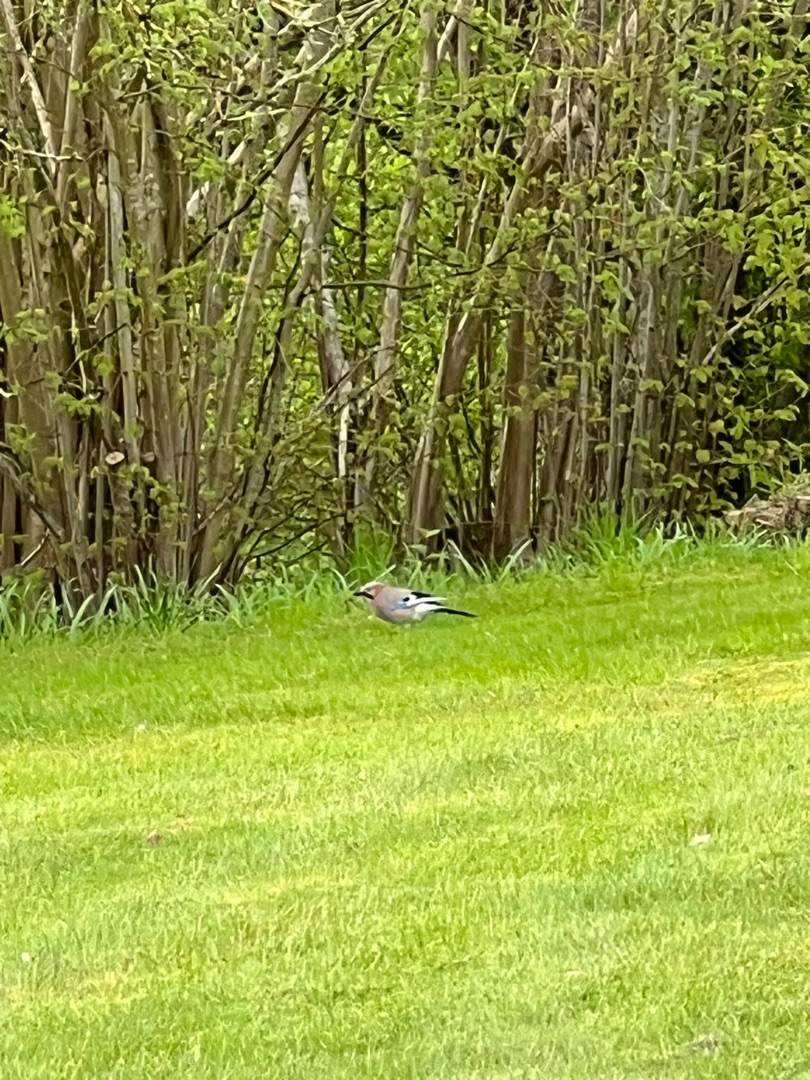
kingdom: Animalia
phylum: Chordata
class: Aves
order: Passeriformes
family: Corvidae
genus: Garrulus
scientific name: Garrulus glandarius
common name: Skovskade
